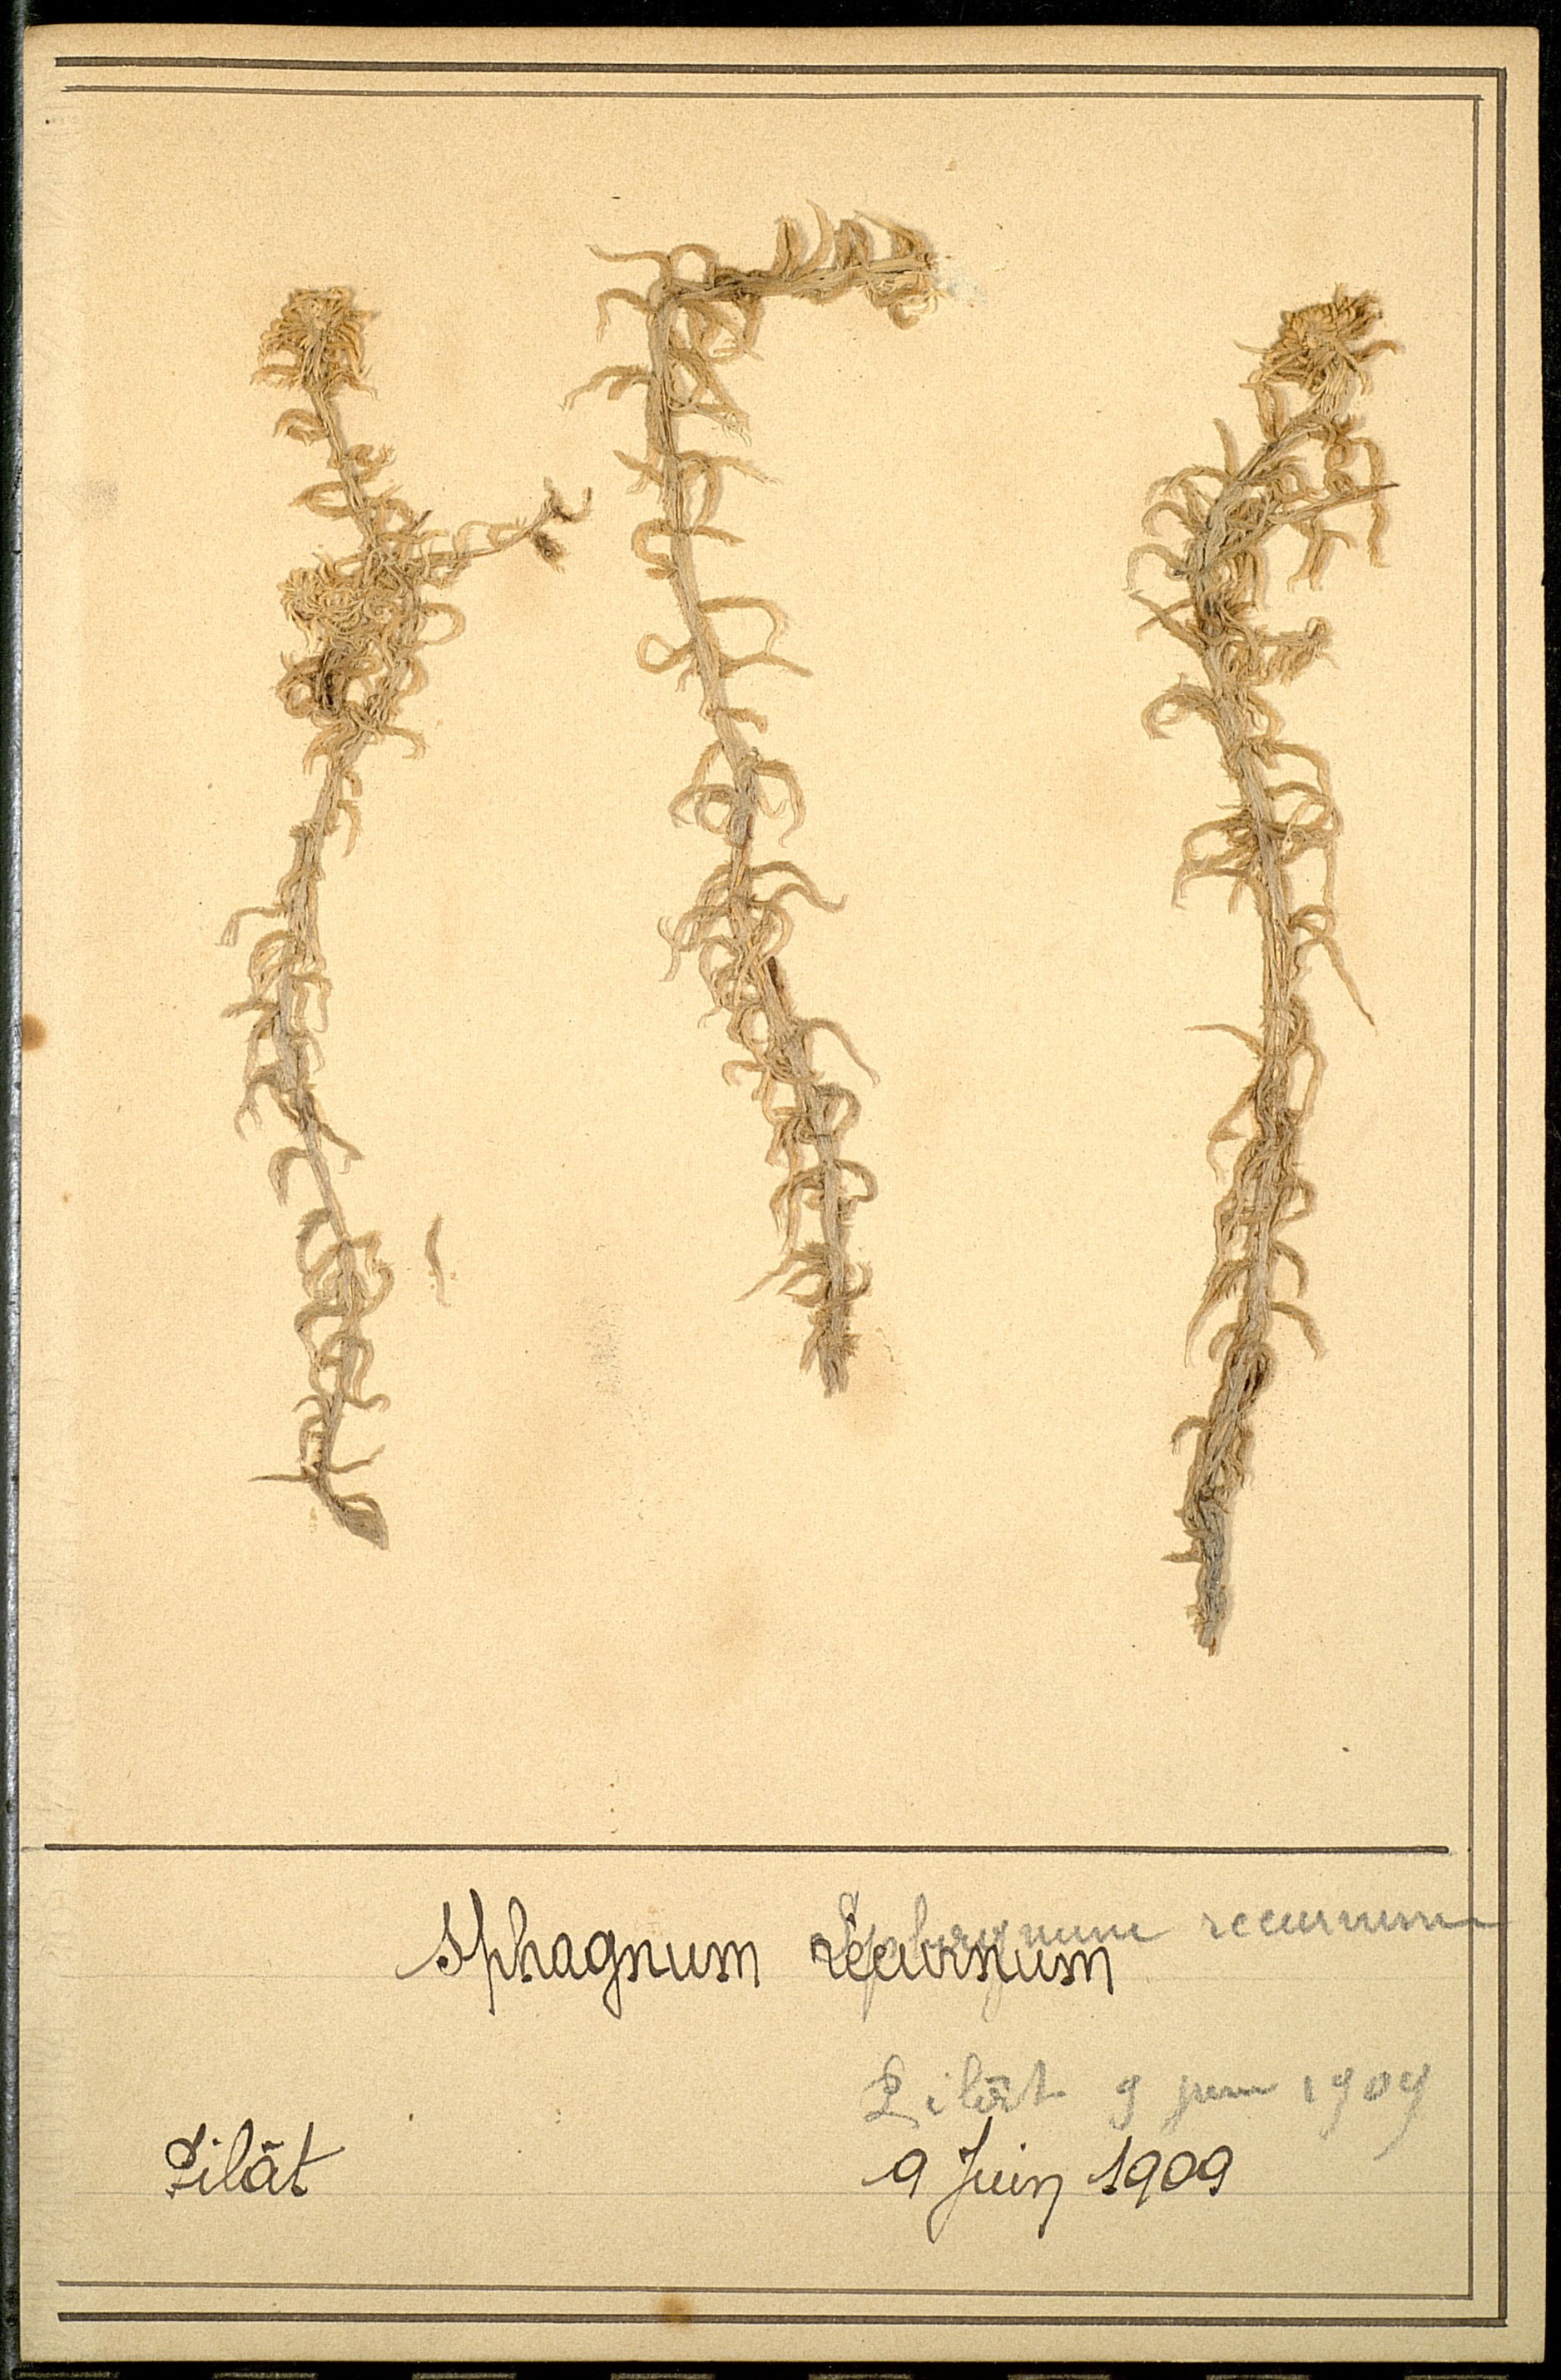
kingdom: Plantae
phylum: Bryophyta
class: Sphagnopsida
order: Sphagnales
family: Sphagnaceae
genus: Sphagnum
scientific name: Sphagnum recurvum
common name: Recurved peatmoss
